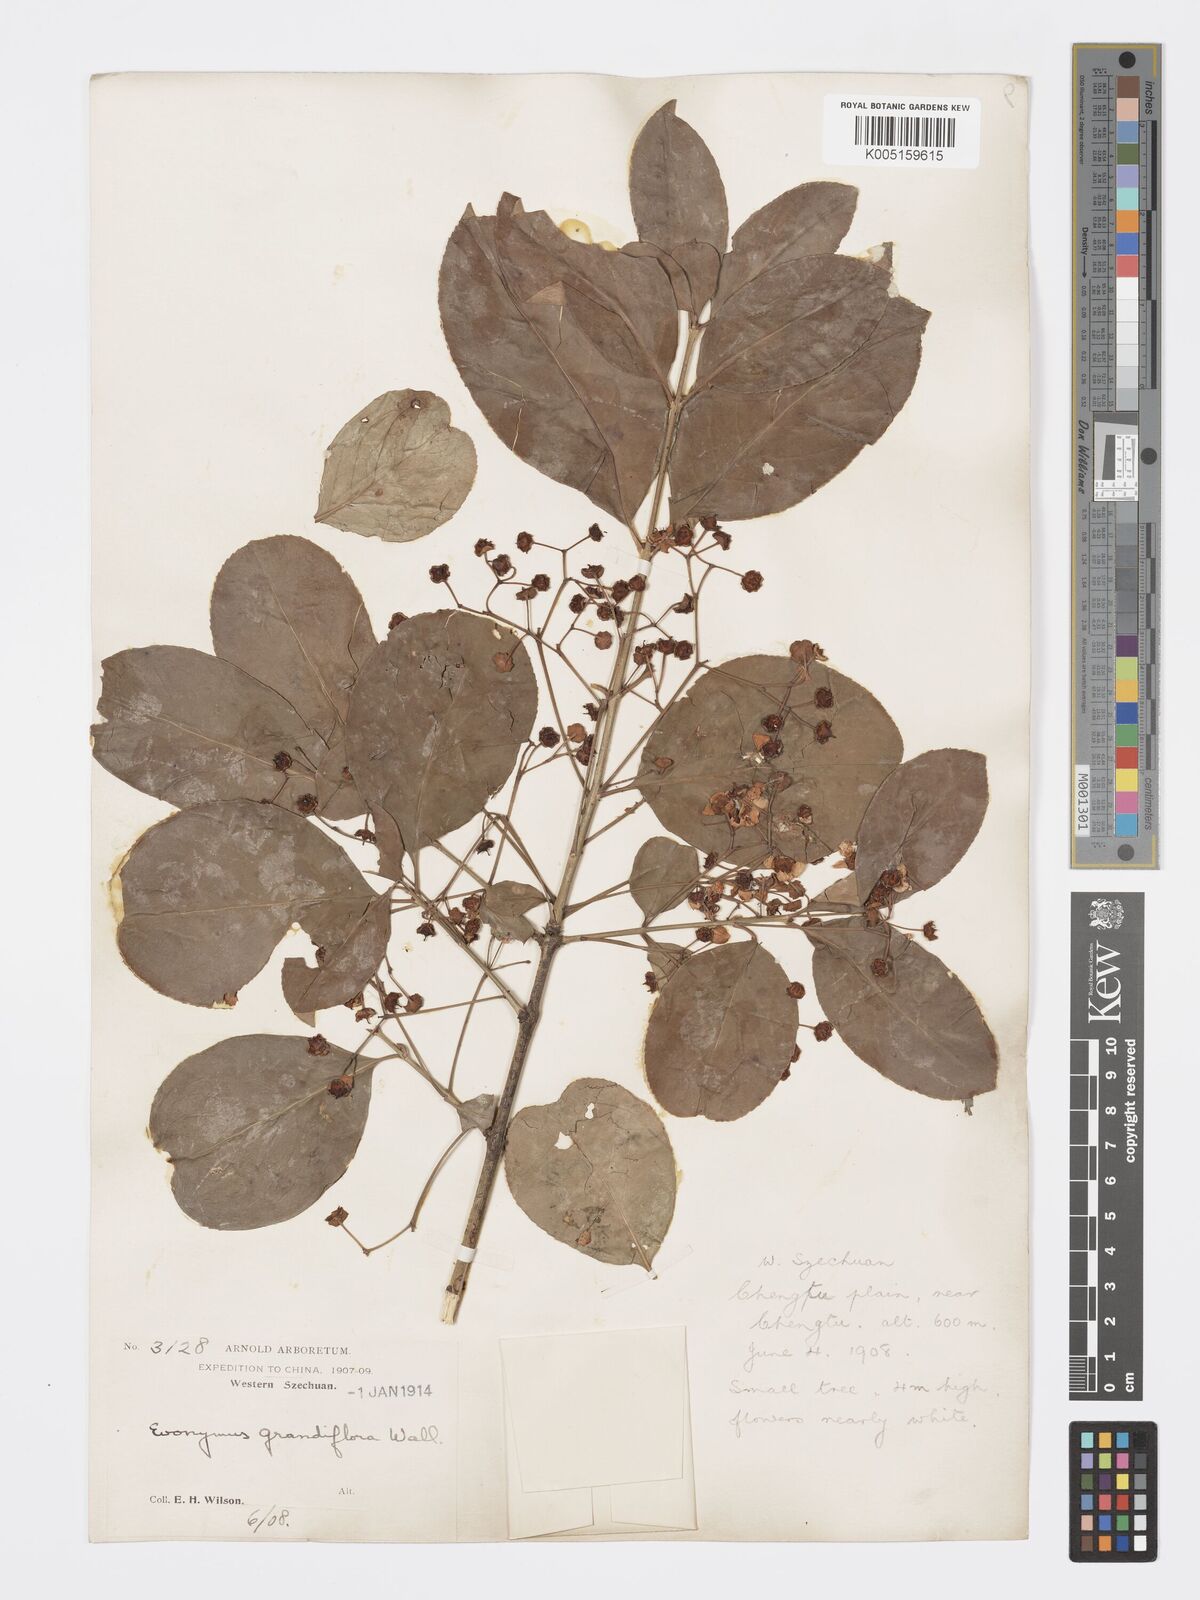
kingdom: Plantae
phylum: Tracheophyta
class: Magnoliopsida
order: Celastrales
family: Celastraceae
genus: Euonymus
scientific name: Euonymus grandiflorus
